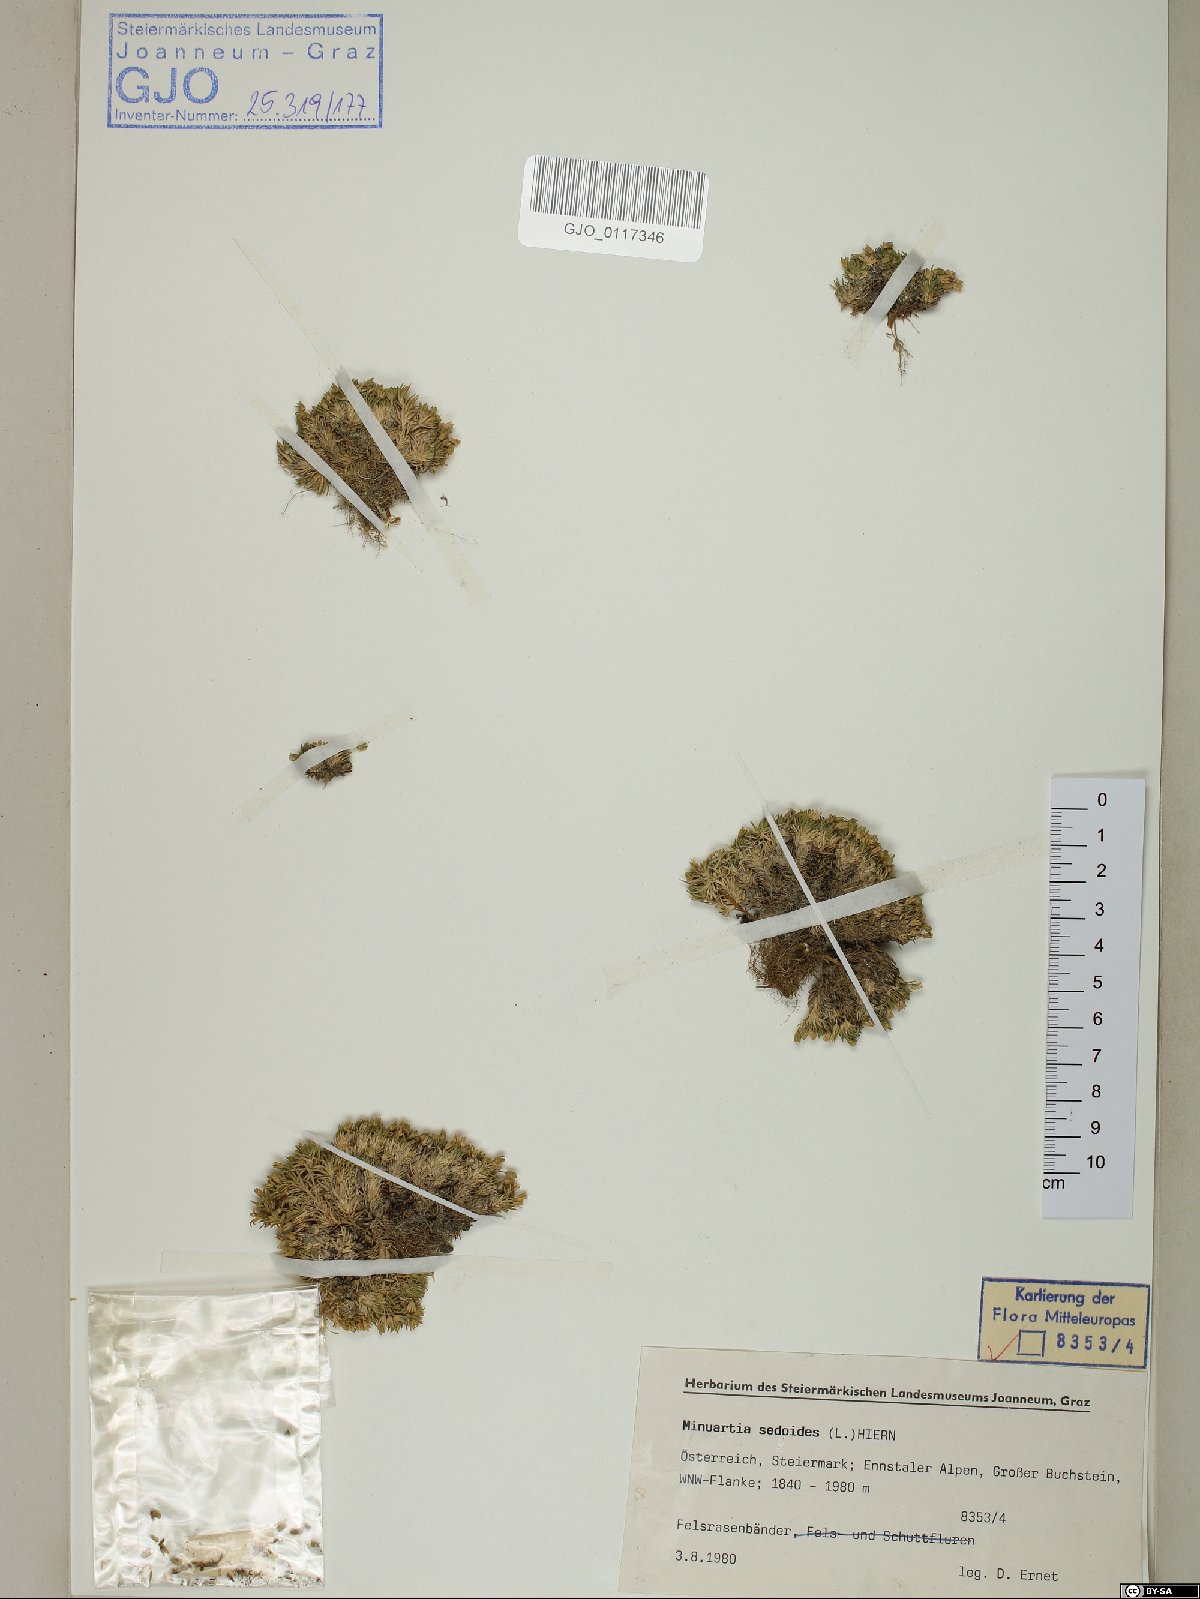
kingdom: Plantae
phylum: Tracheophyta
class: Magnoliopsida
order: Caryophyllales
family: Caryophyllaceae
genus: Cherleria
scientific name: Cherleria sedoides
